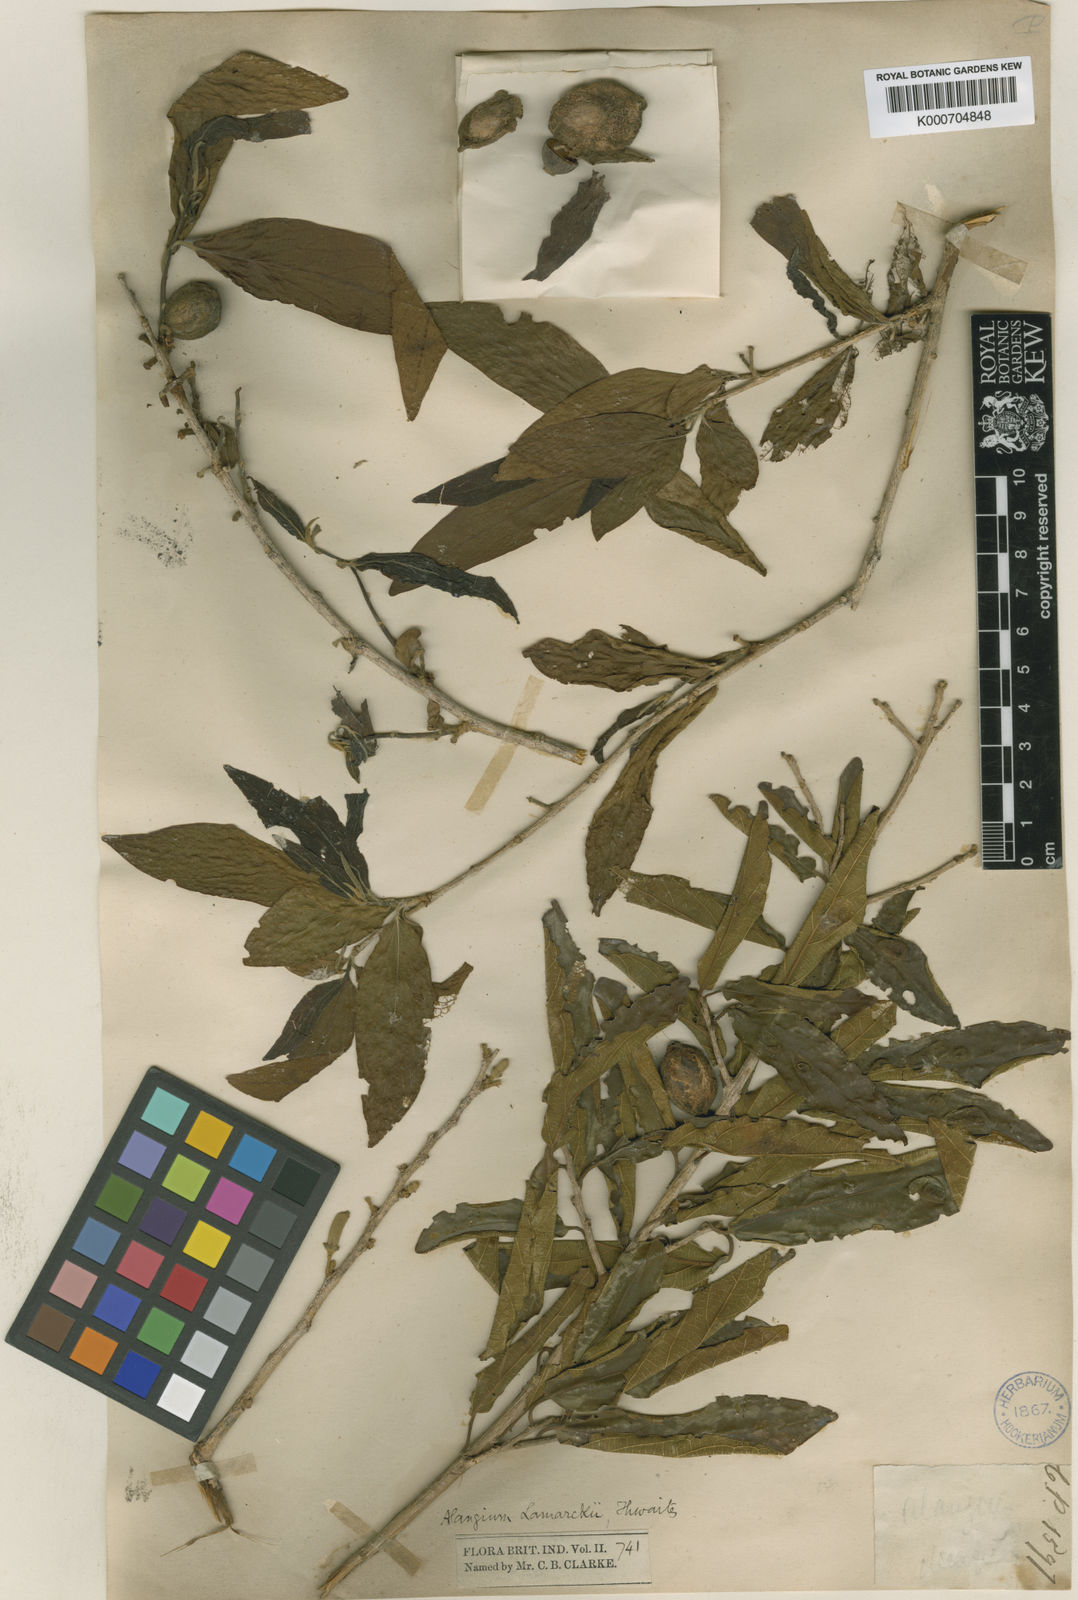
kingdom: Plantae
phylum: Tracheophyta
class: Magnoliopsida
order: Cornales
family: Cornaceae
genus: Alangium
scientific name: Alangium salviifolium
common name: Sage-leaf alangium
